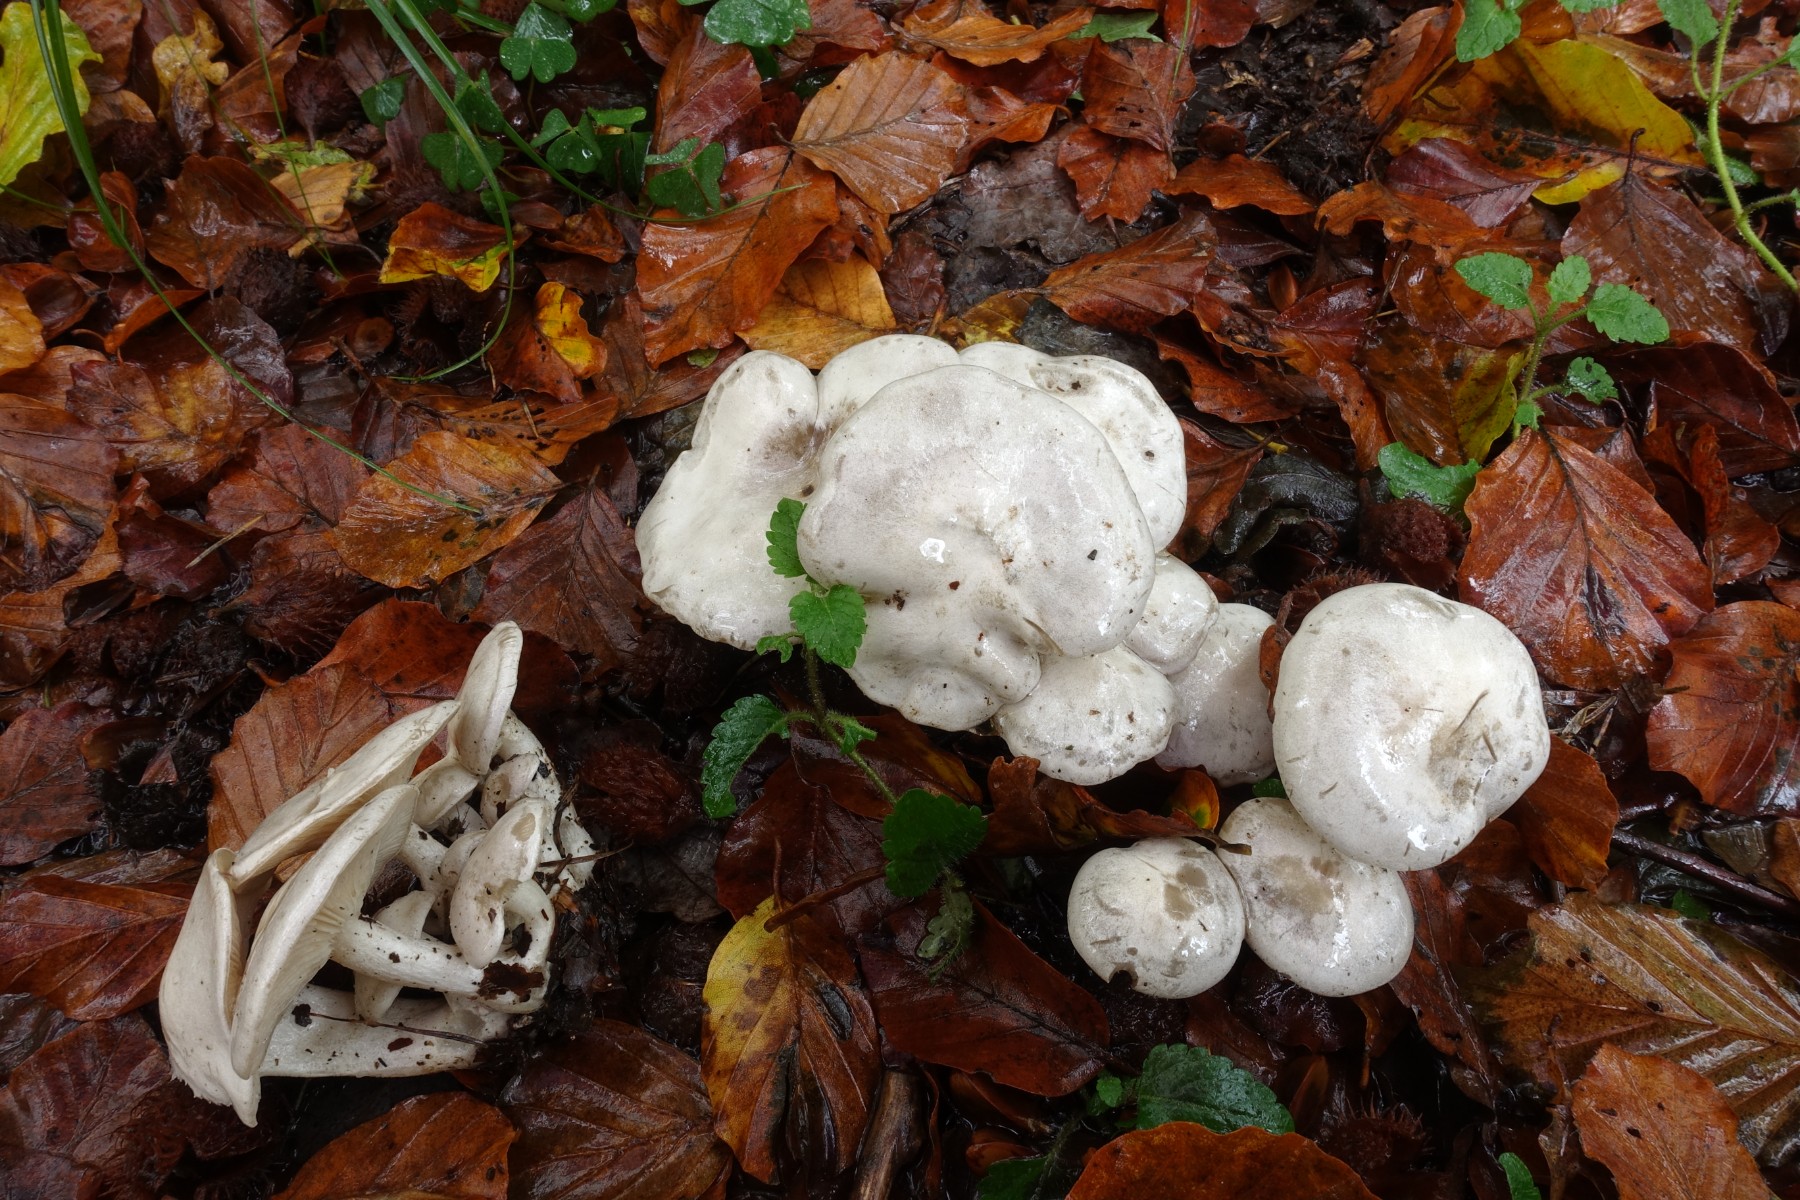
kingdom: Fungi
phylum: Basidiomycota
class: Agaricomycetes
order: Agaricales
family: Tricholomataceae
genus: Leucocybe
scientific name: Leucocybe connata
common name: knippe-tragthat
